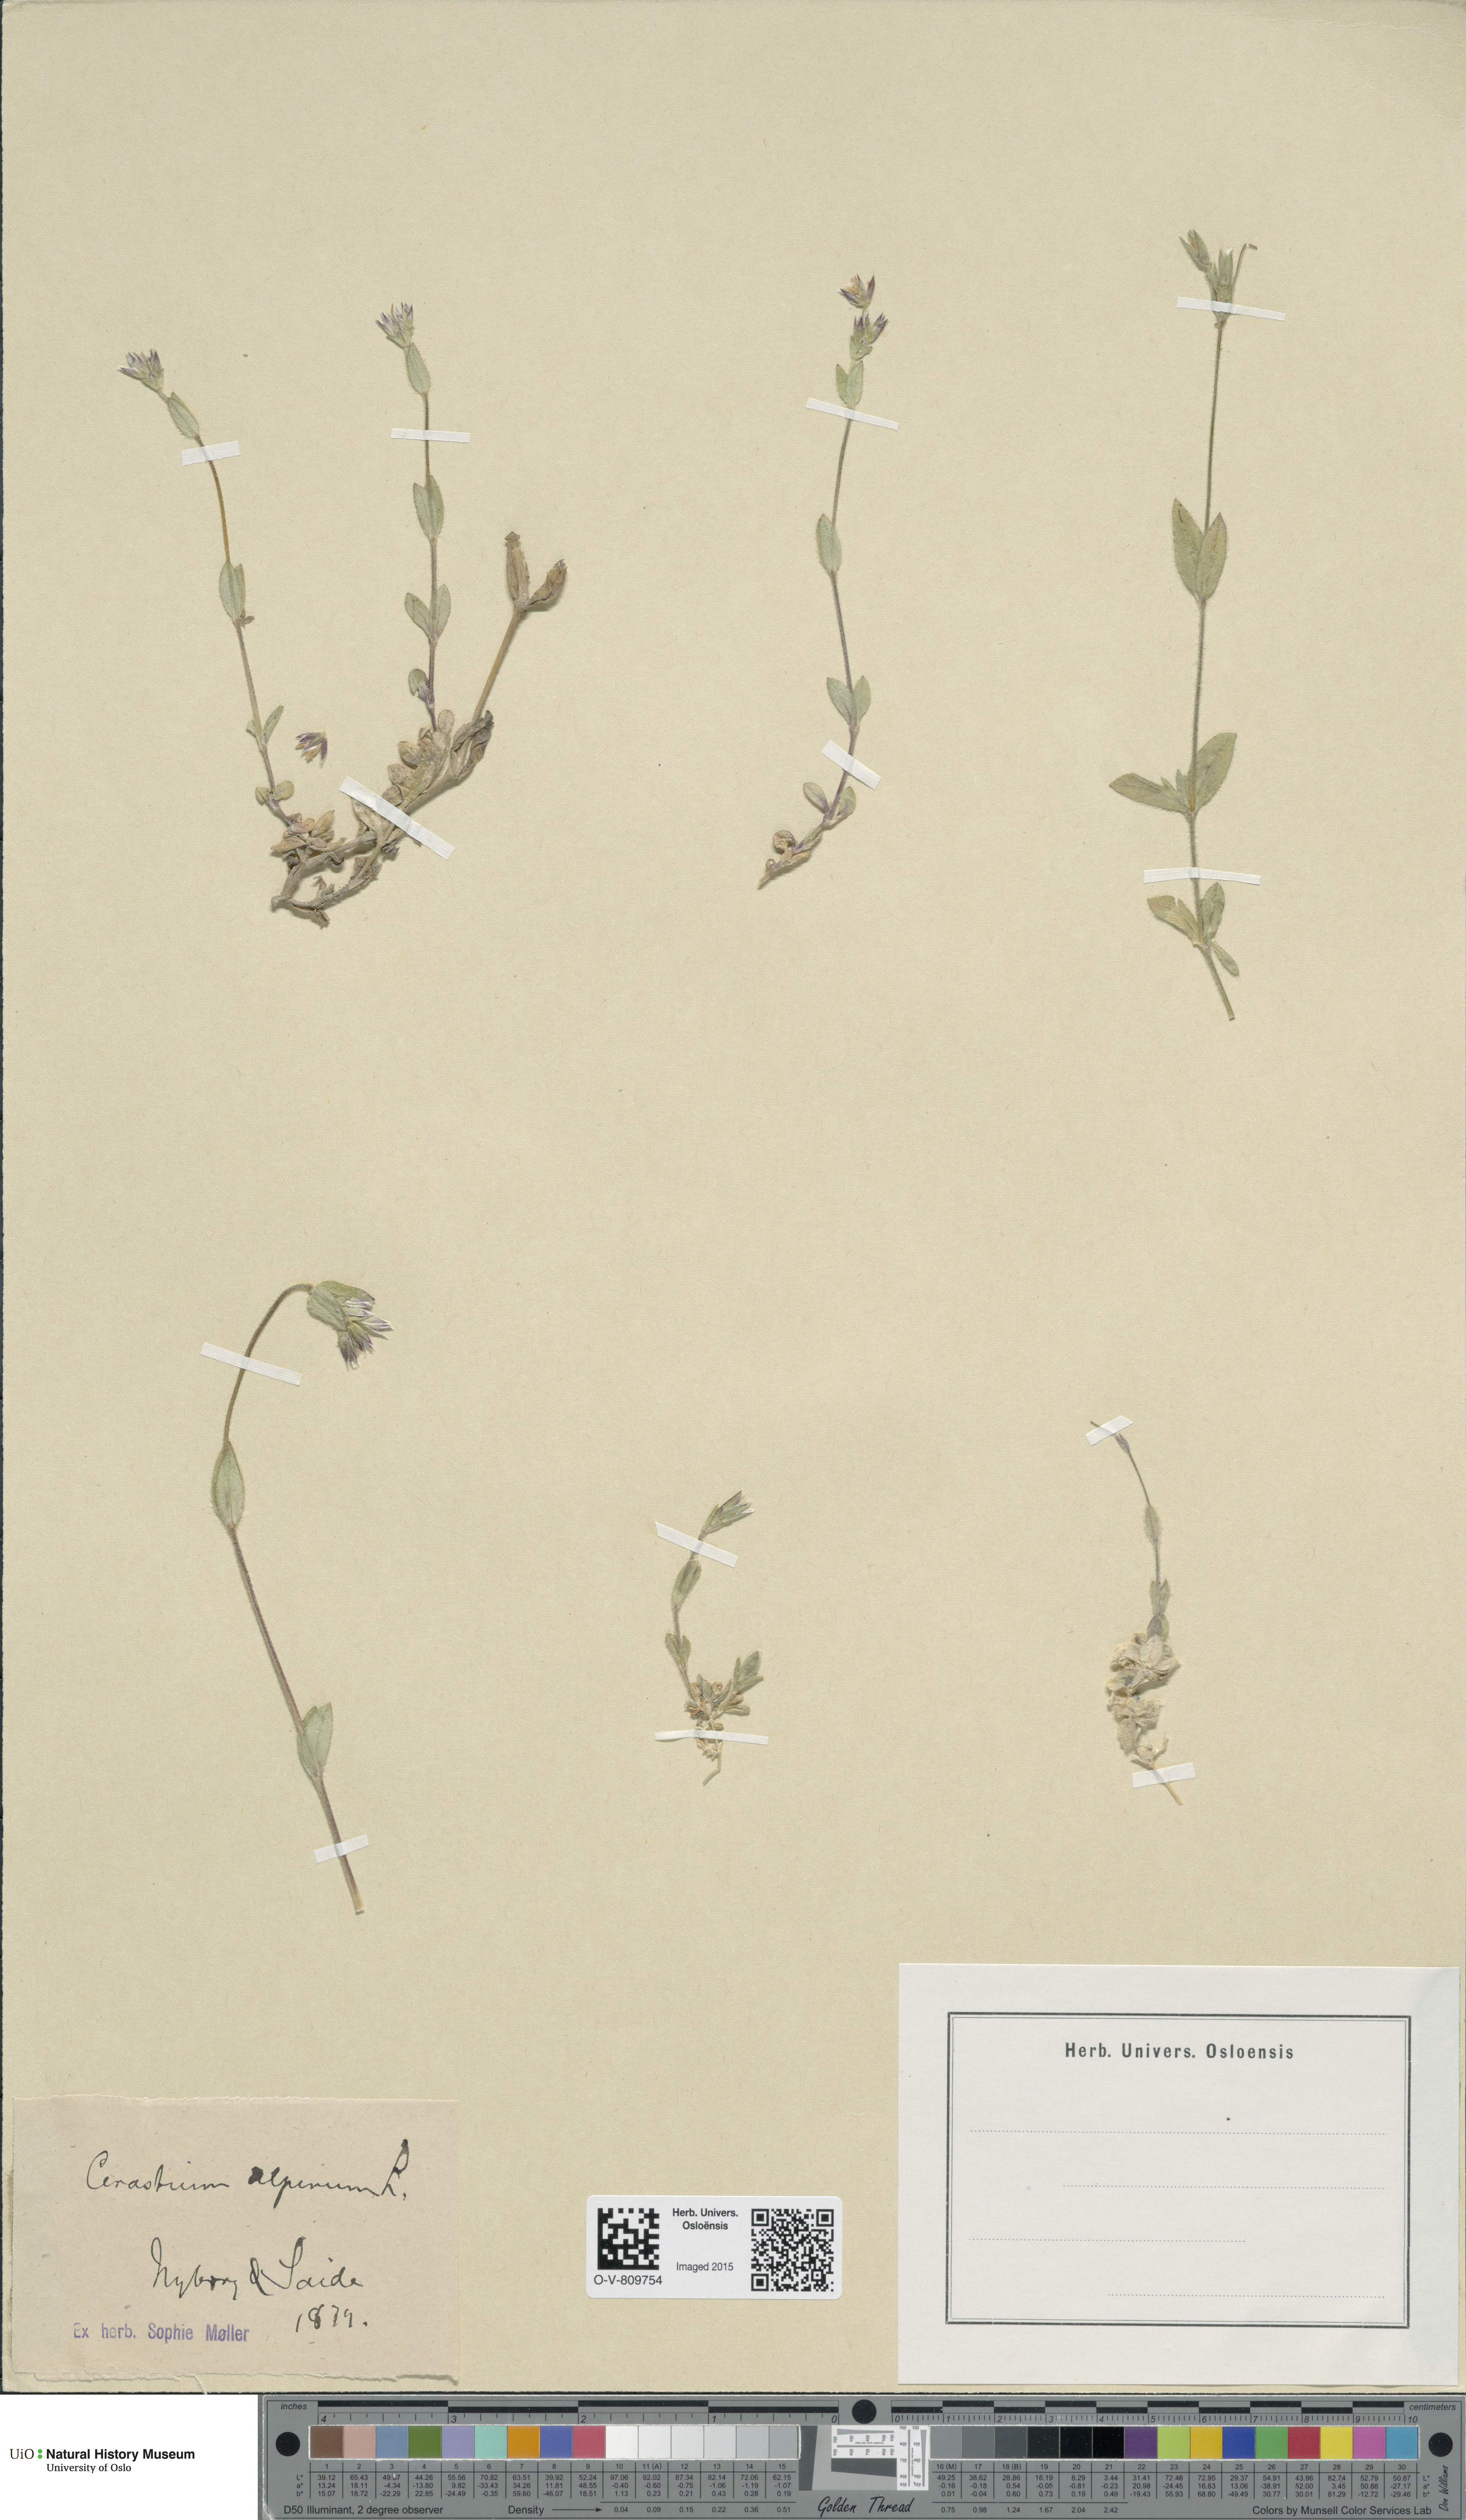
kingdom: Plantae
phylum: Tracheophyta
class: Magnoliopsida
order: Caryophyllales
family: Caryophyllaceae
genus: Cerastium
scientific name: Cerastium alpinum
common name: Alpine mouse-ear
